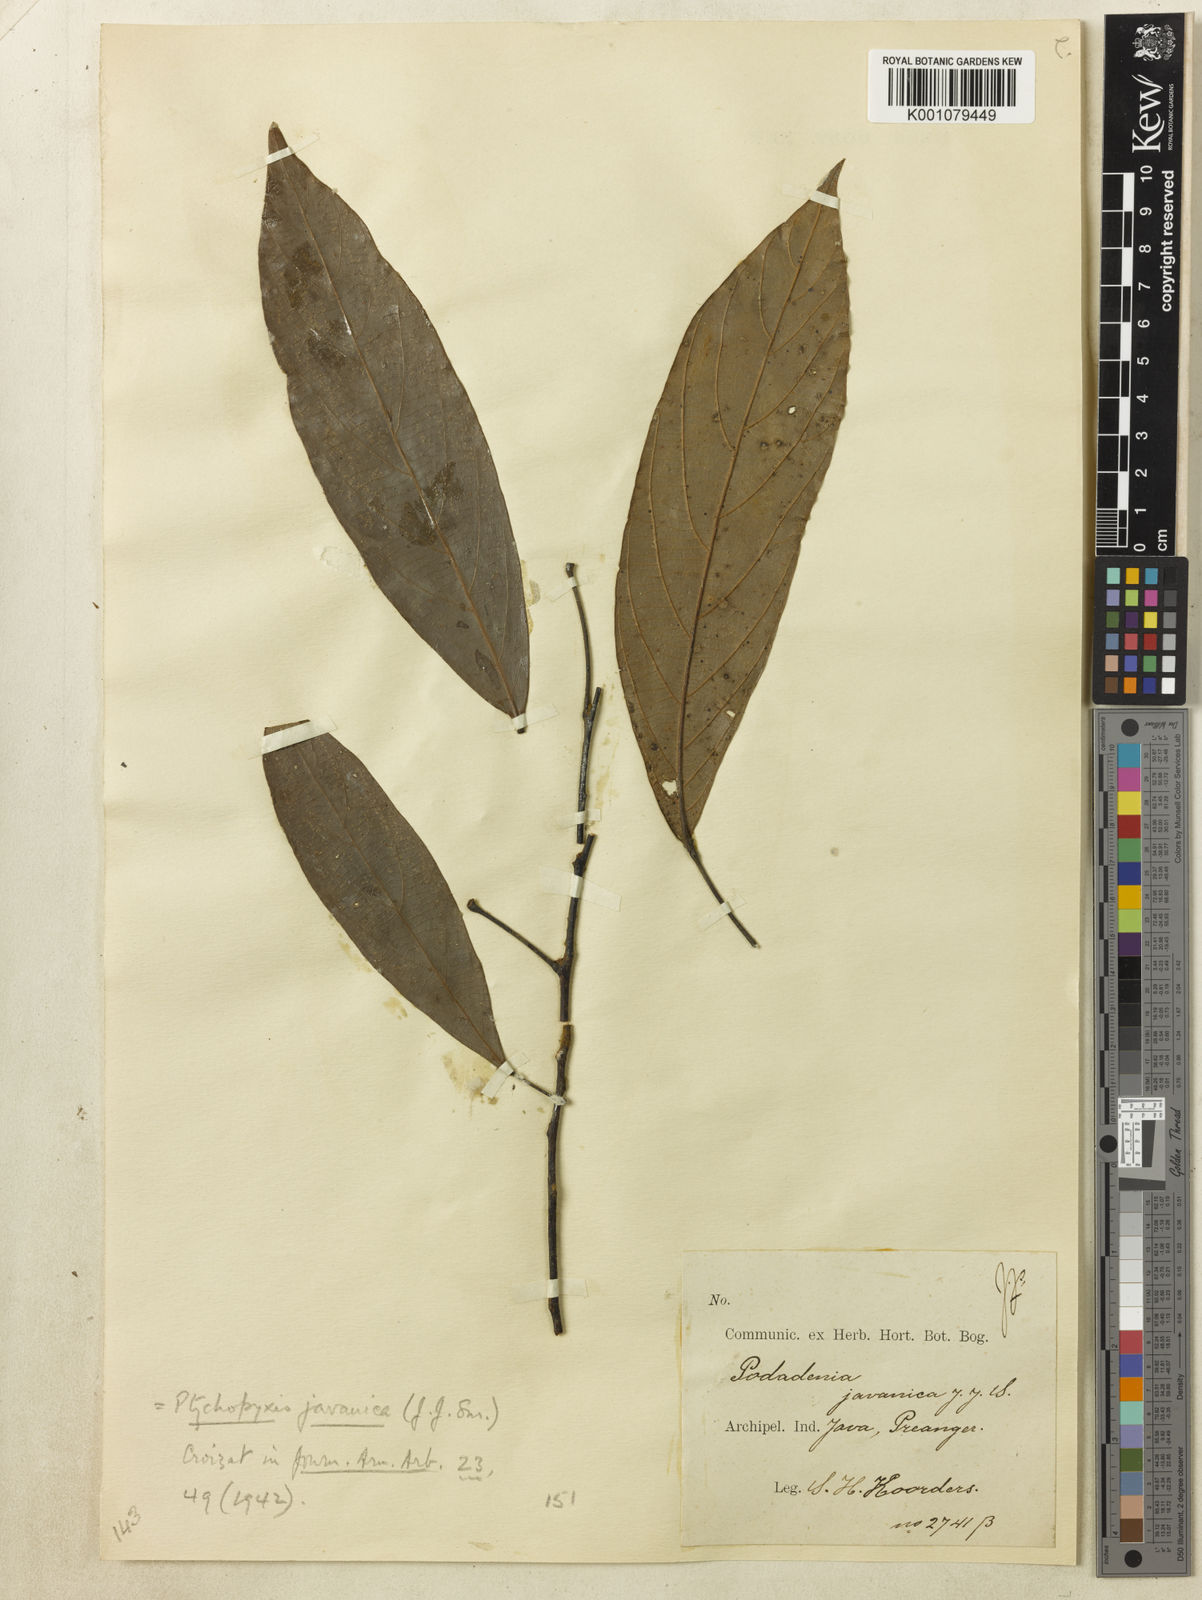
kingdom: Plantae
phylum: Tracheophyta
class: Magnoliopsida
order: Malpighiales
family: Euphorbiaceae
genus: Ptychopyxis
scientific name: Ptychopyxis javanica
